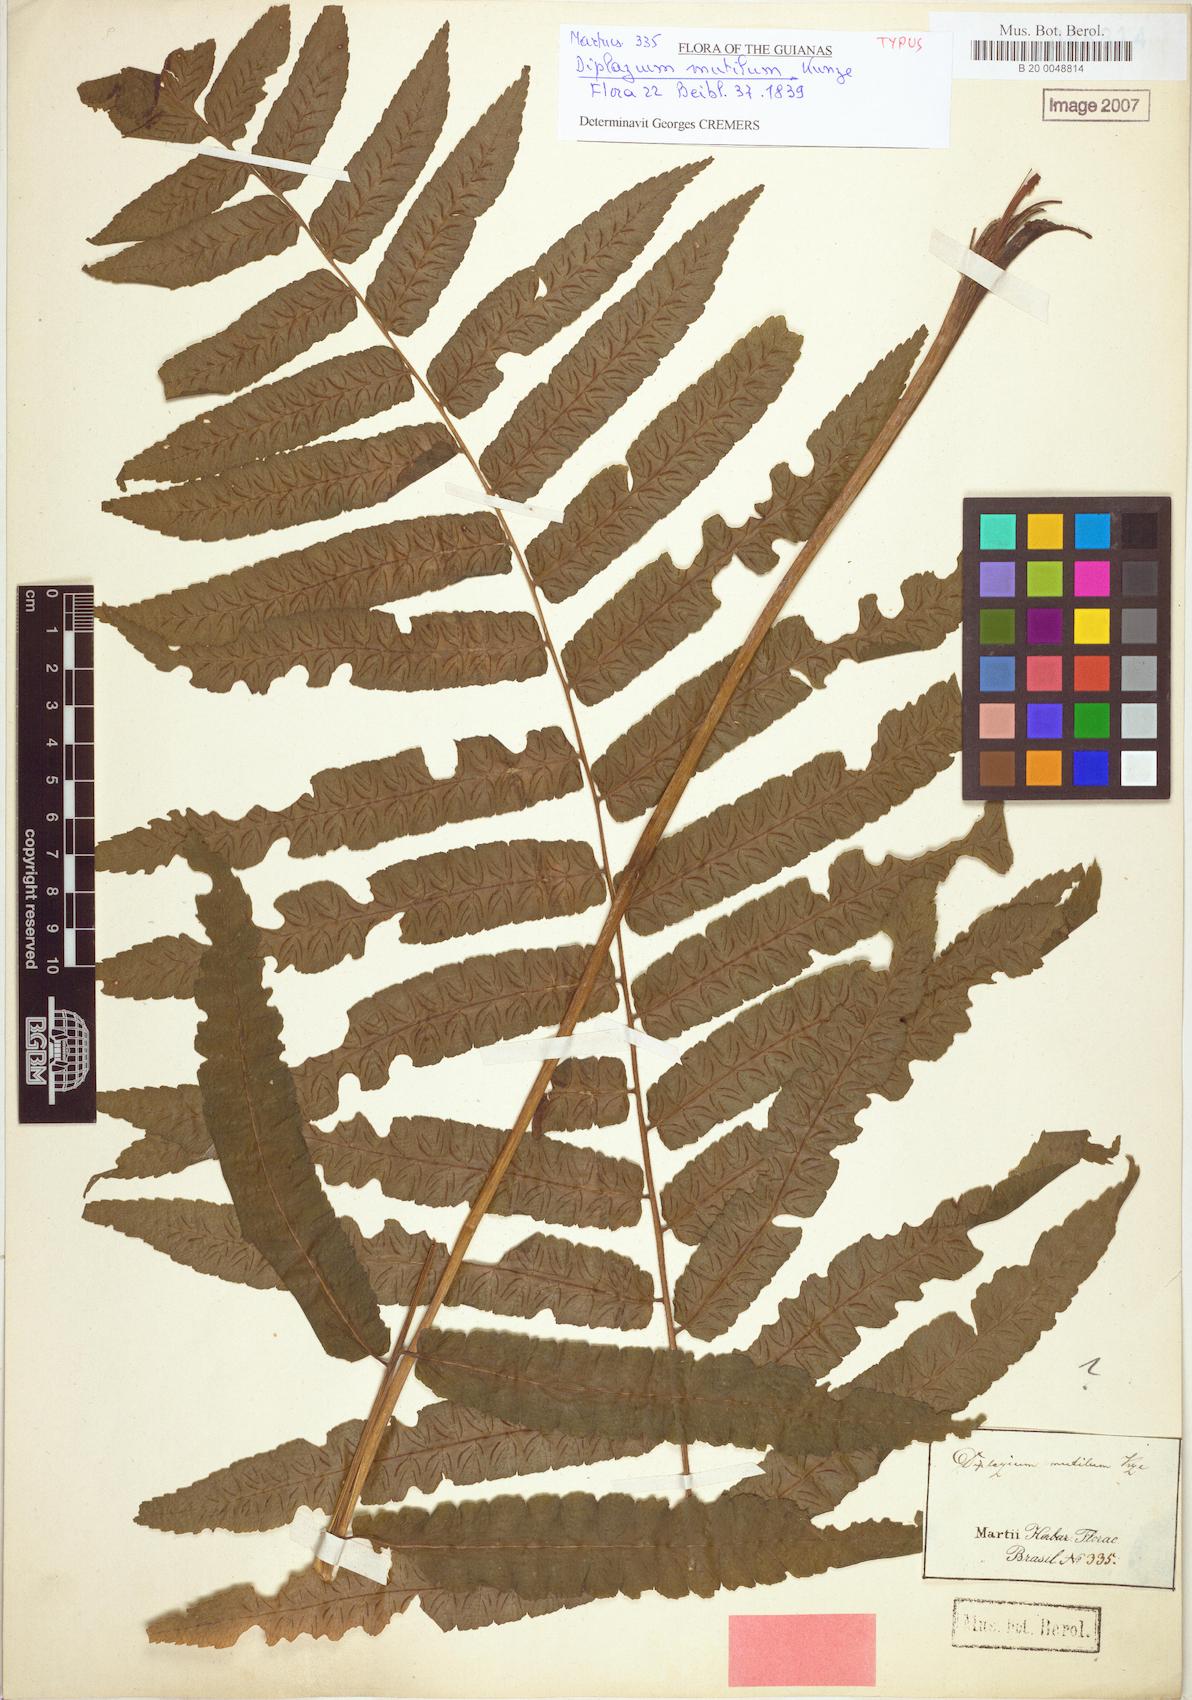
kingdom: Plantae
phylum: Tracheophyta
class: Polypodiopsida
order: Polypodiales
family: Athyriaceae
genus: Diplazium
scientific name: Diplazium mutilum
